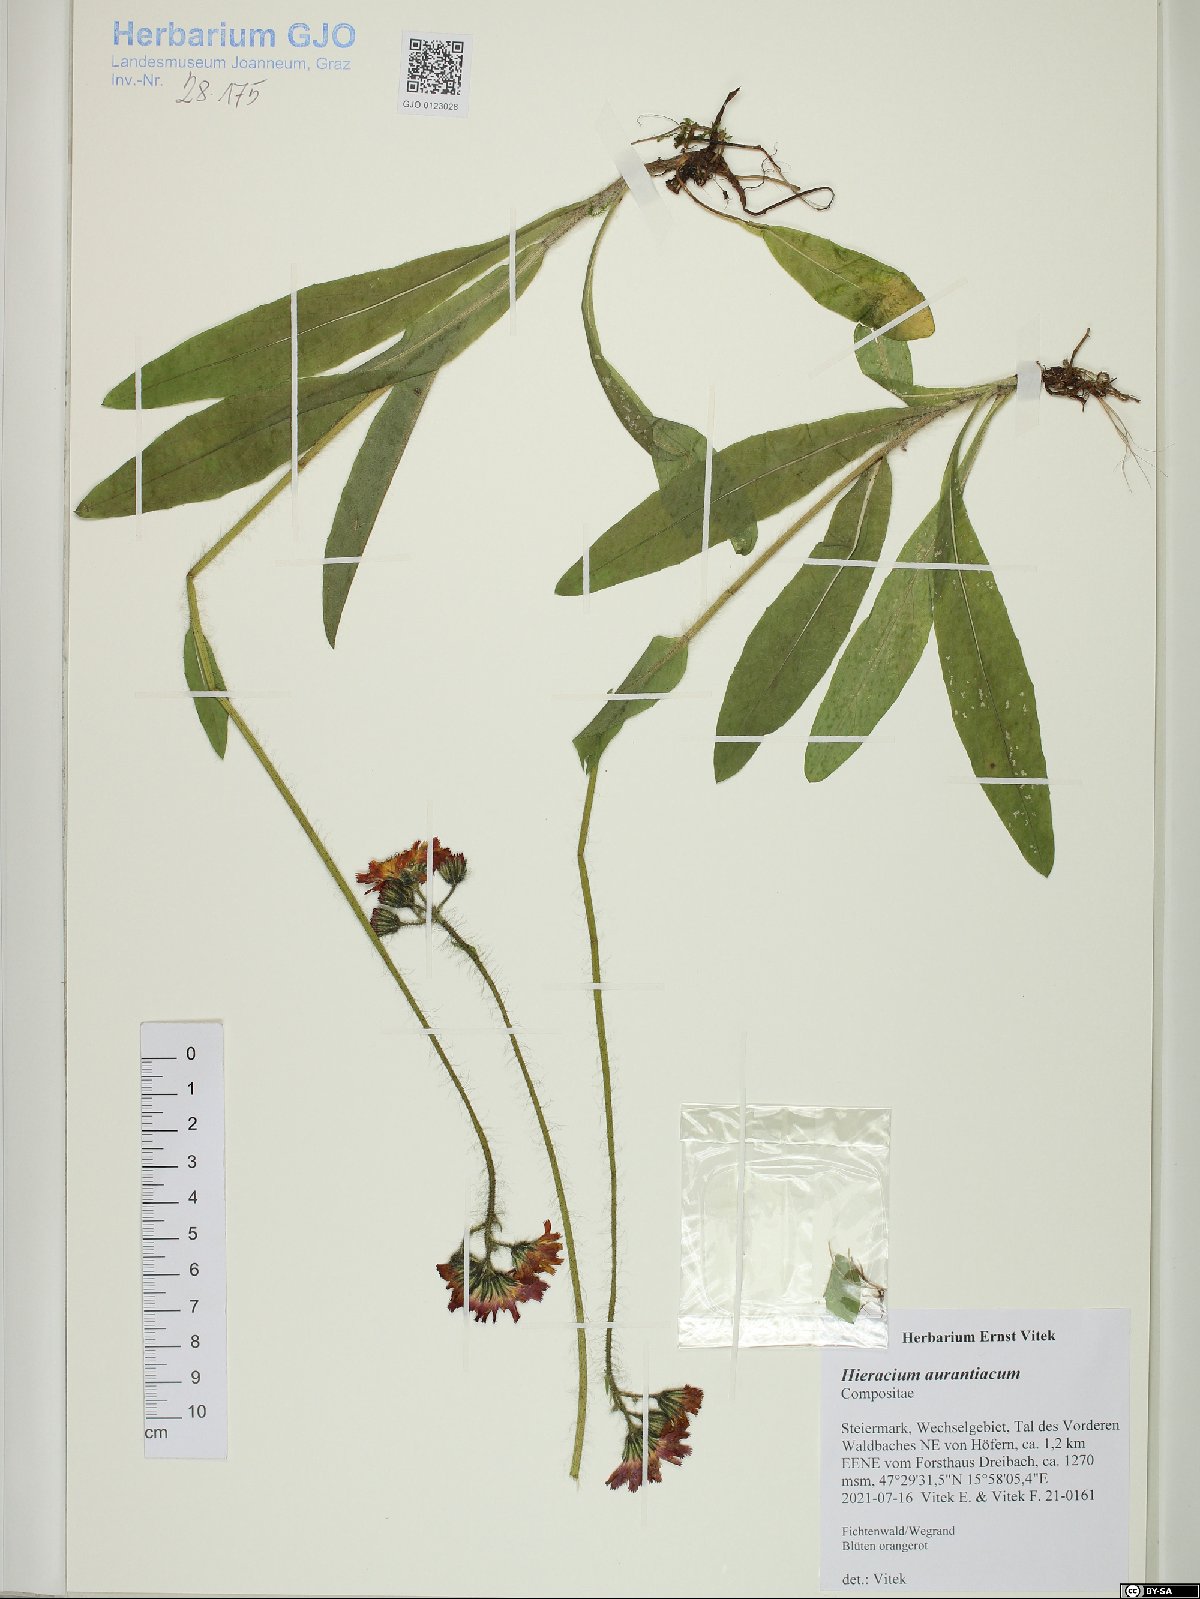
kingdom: Plantae
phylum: Tracheophyta
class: Magnoliopsida
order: Asterales
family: Asteraceae
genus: Pilosella
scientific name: Pilosella aurantiaca
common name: Fox-and-cubs
